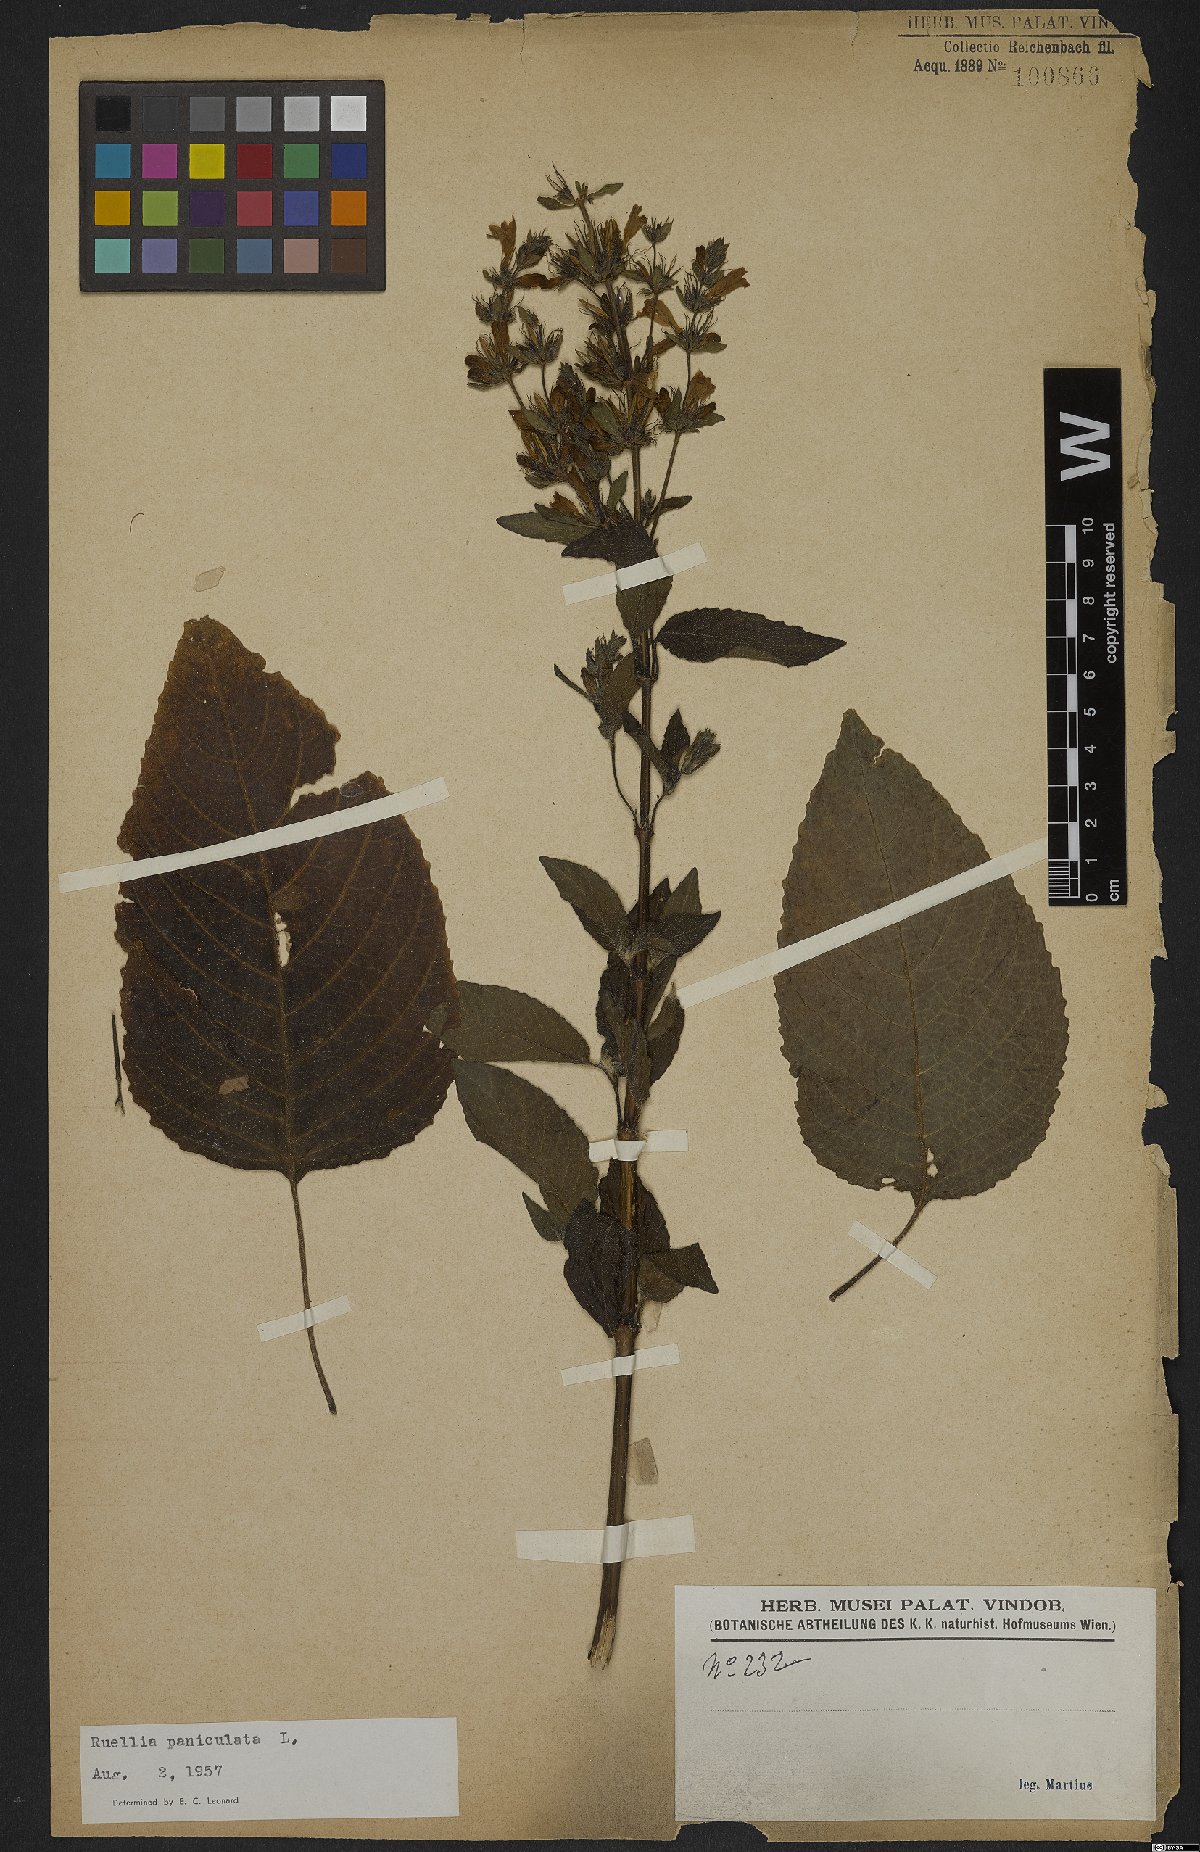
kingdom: Plantae
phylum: Tracheophyta
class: Magnoliopsida
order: Lamiales
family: Acanthaceae
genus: Barleria
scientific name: Barleria tomentosa
